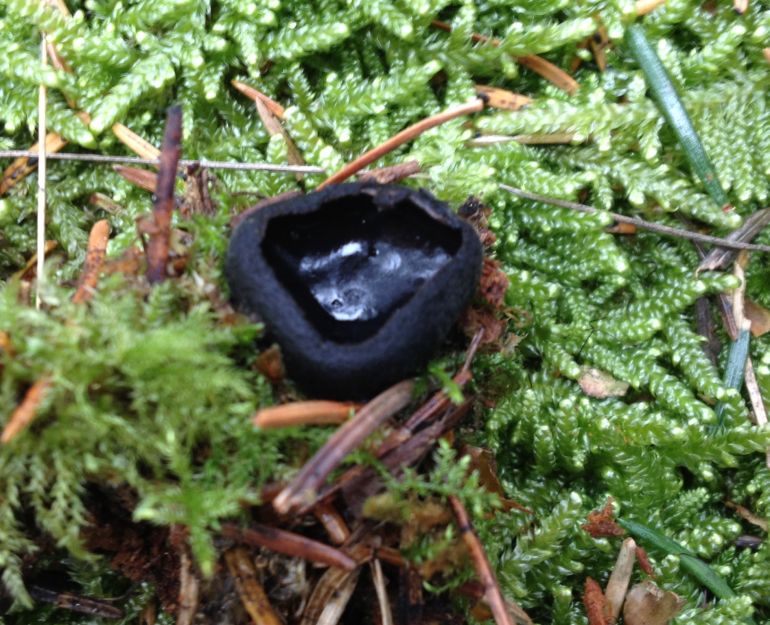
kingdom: Fungi
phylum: Ascomycota
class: Pezizomycetes
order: Pezizales
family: Sarcosomataceae
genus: Pseudoplectania
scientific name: Pseudoplectania nigrella
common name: almindelig sortbæger
